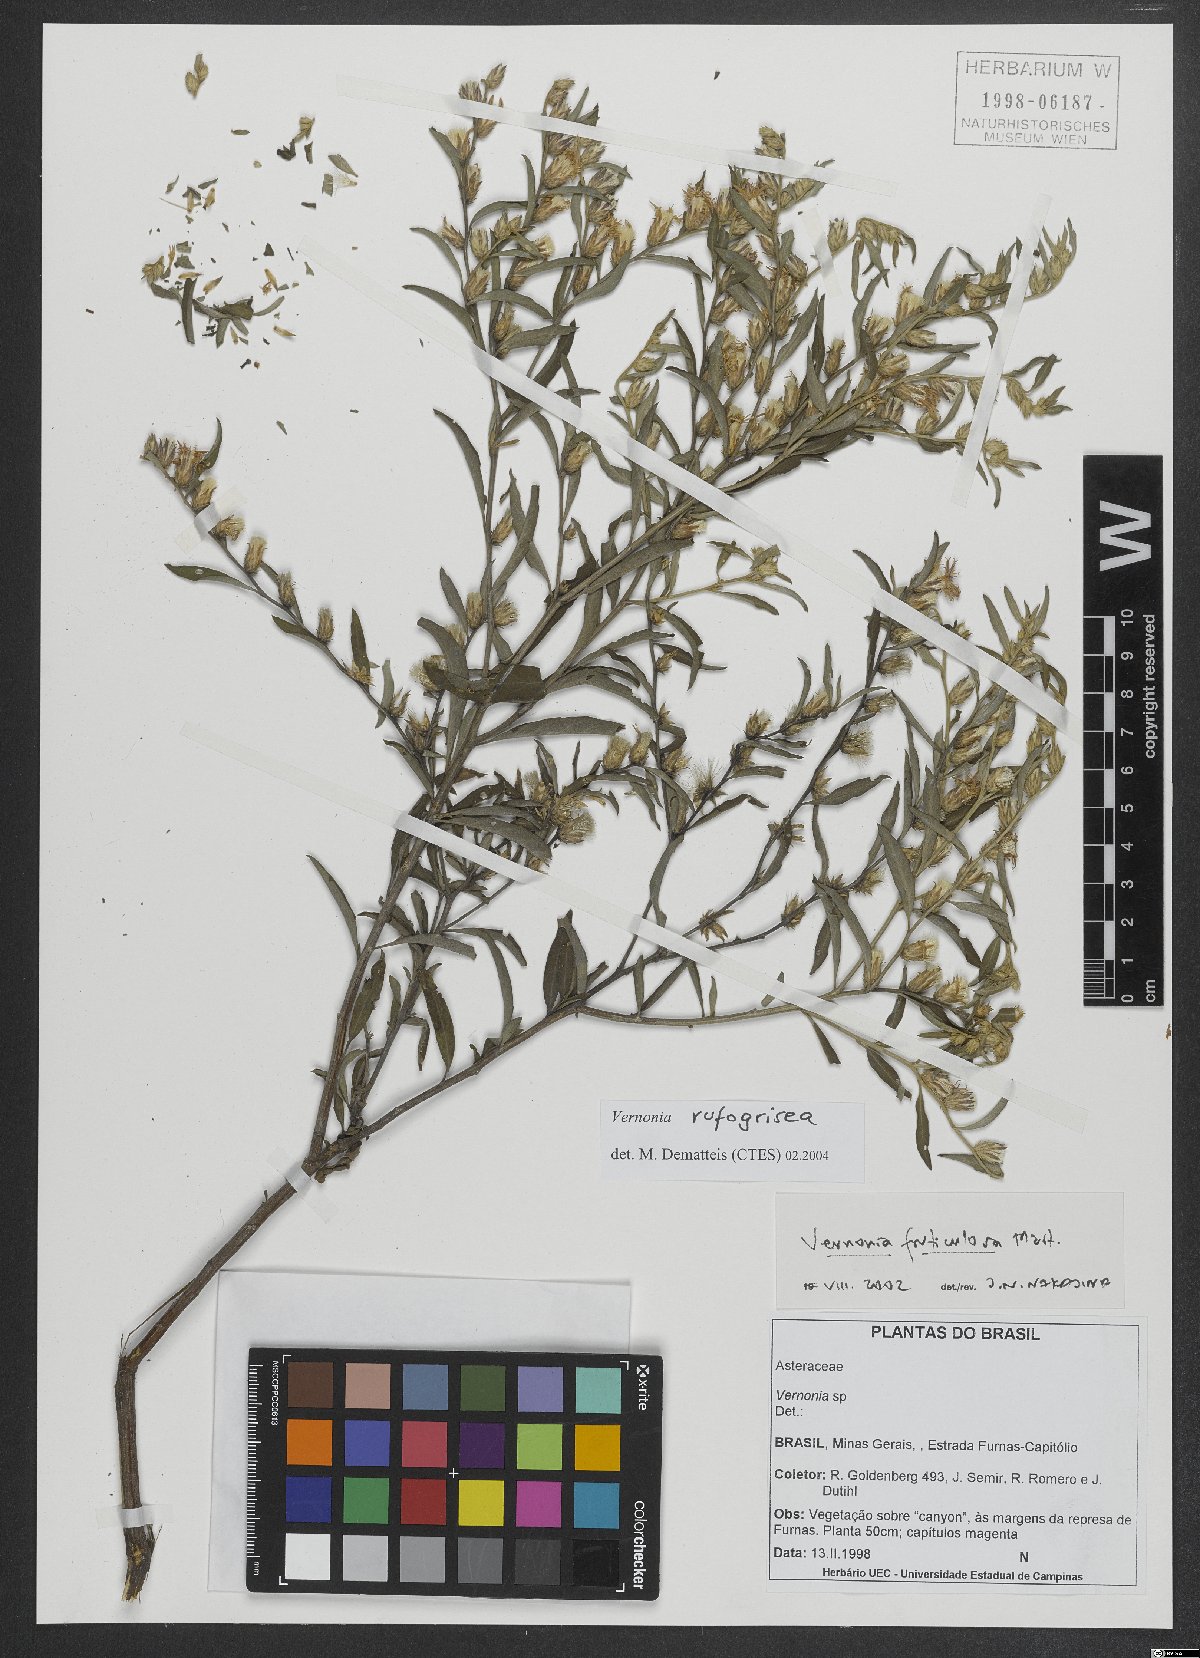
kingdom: Plantae
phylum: Tracheophyta
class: Magnoliopsida
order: Asterales
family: Asteraceae
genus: Lepidaploa
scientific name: Lepidaploa rufogrisea
